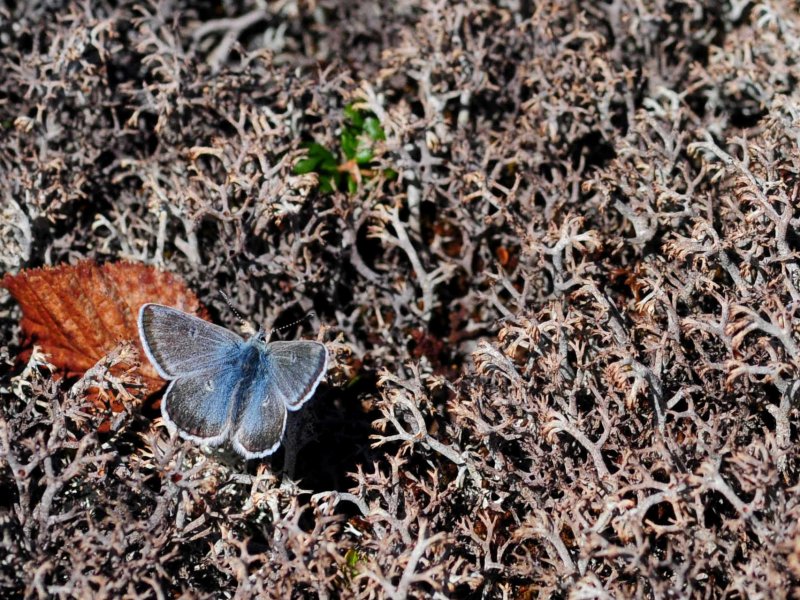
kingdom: Animalia
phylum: Arthropoda
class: Insecta
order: Lepidoptera
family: Lycaenidae
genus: Agriades
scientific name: Agriades glandon
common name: Arctic Blue
